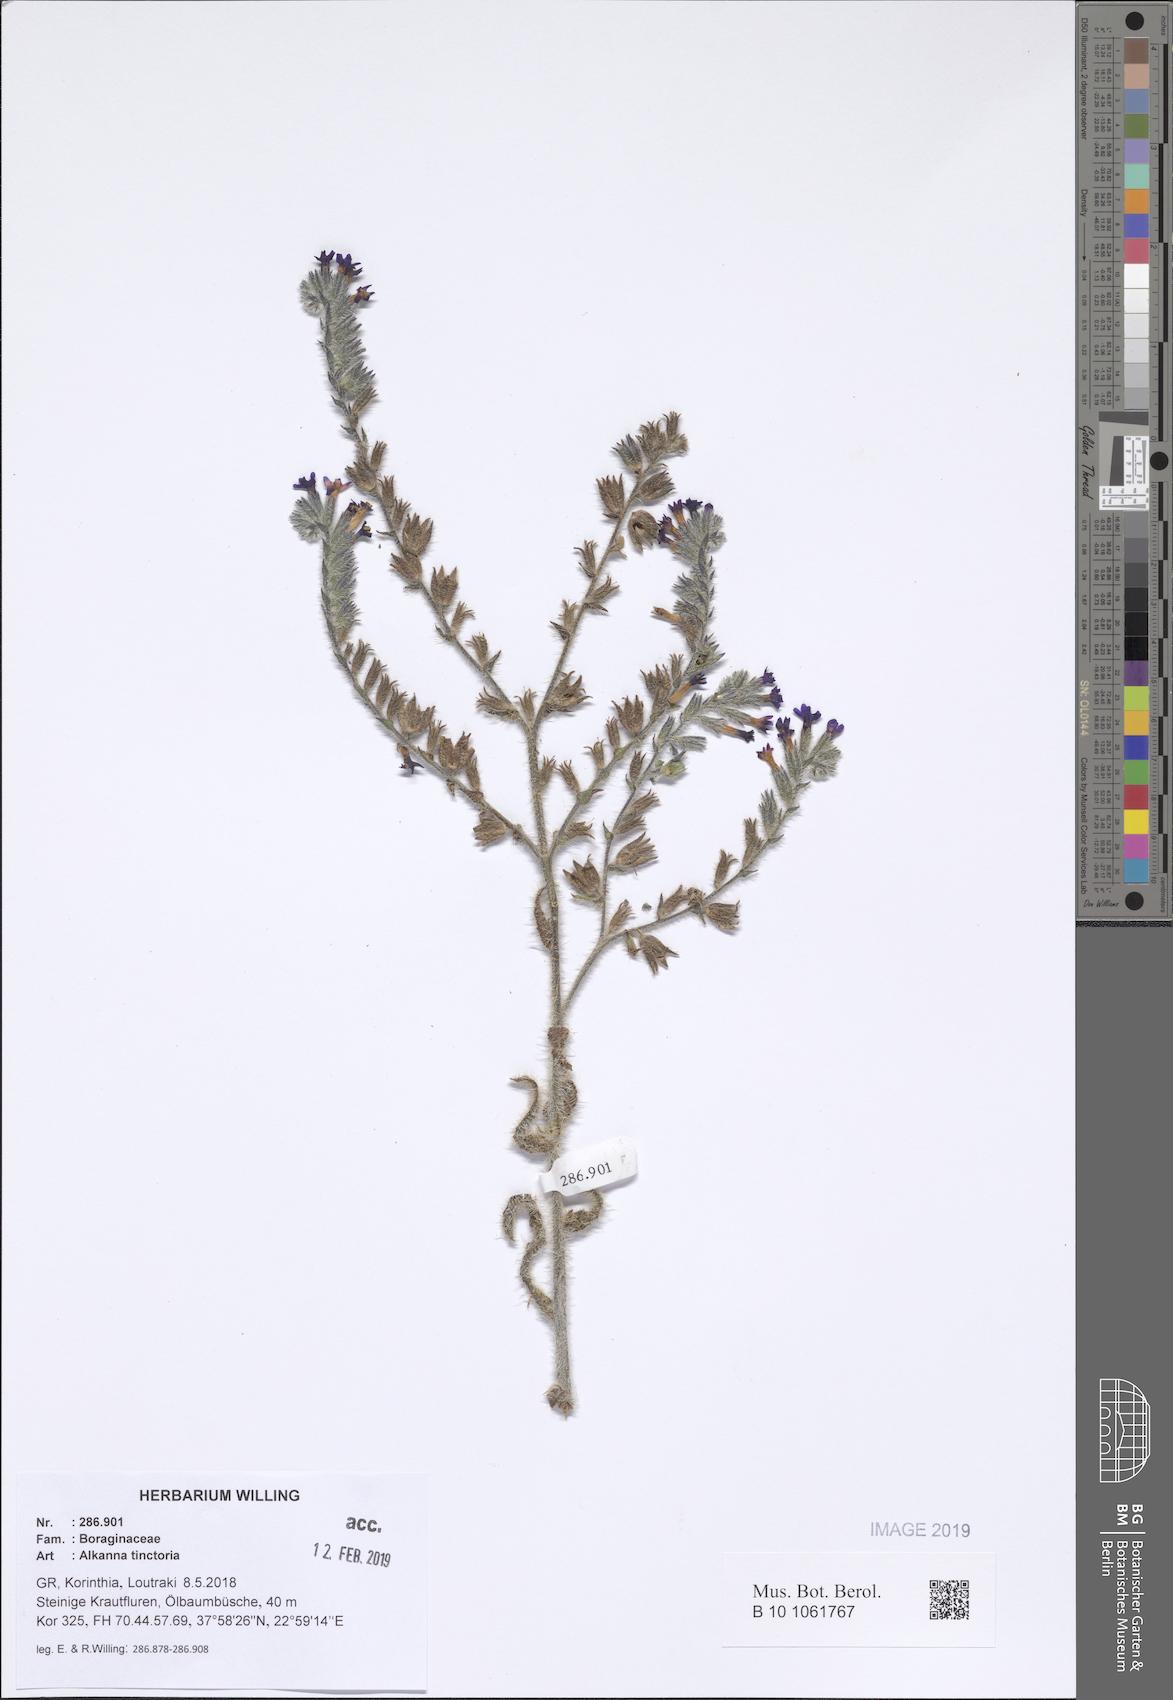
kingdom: Plantae
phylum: Tracheophyta
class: Magnoliopsida
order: Boraginales
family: Boraginaceae
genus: Alkanna
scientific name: Alkanna tinctoria
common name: Dyer's-alkanet
